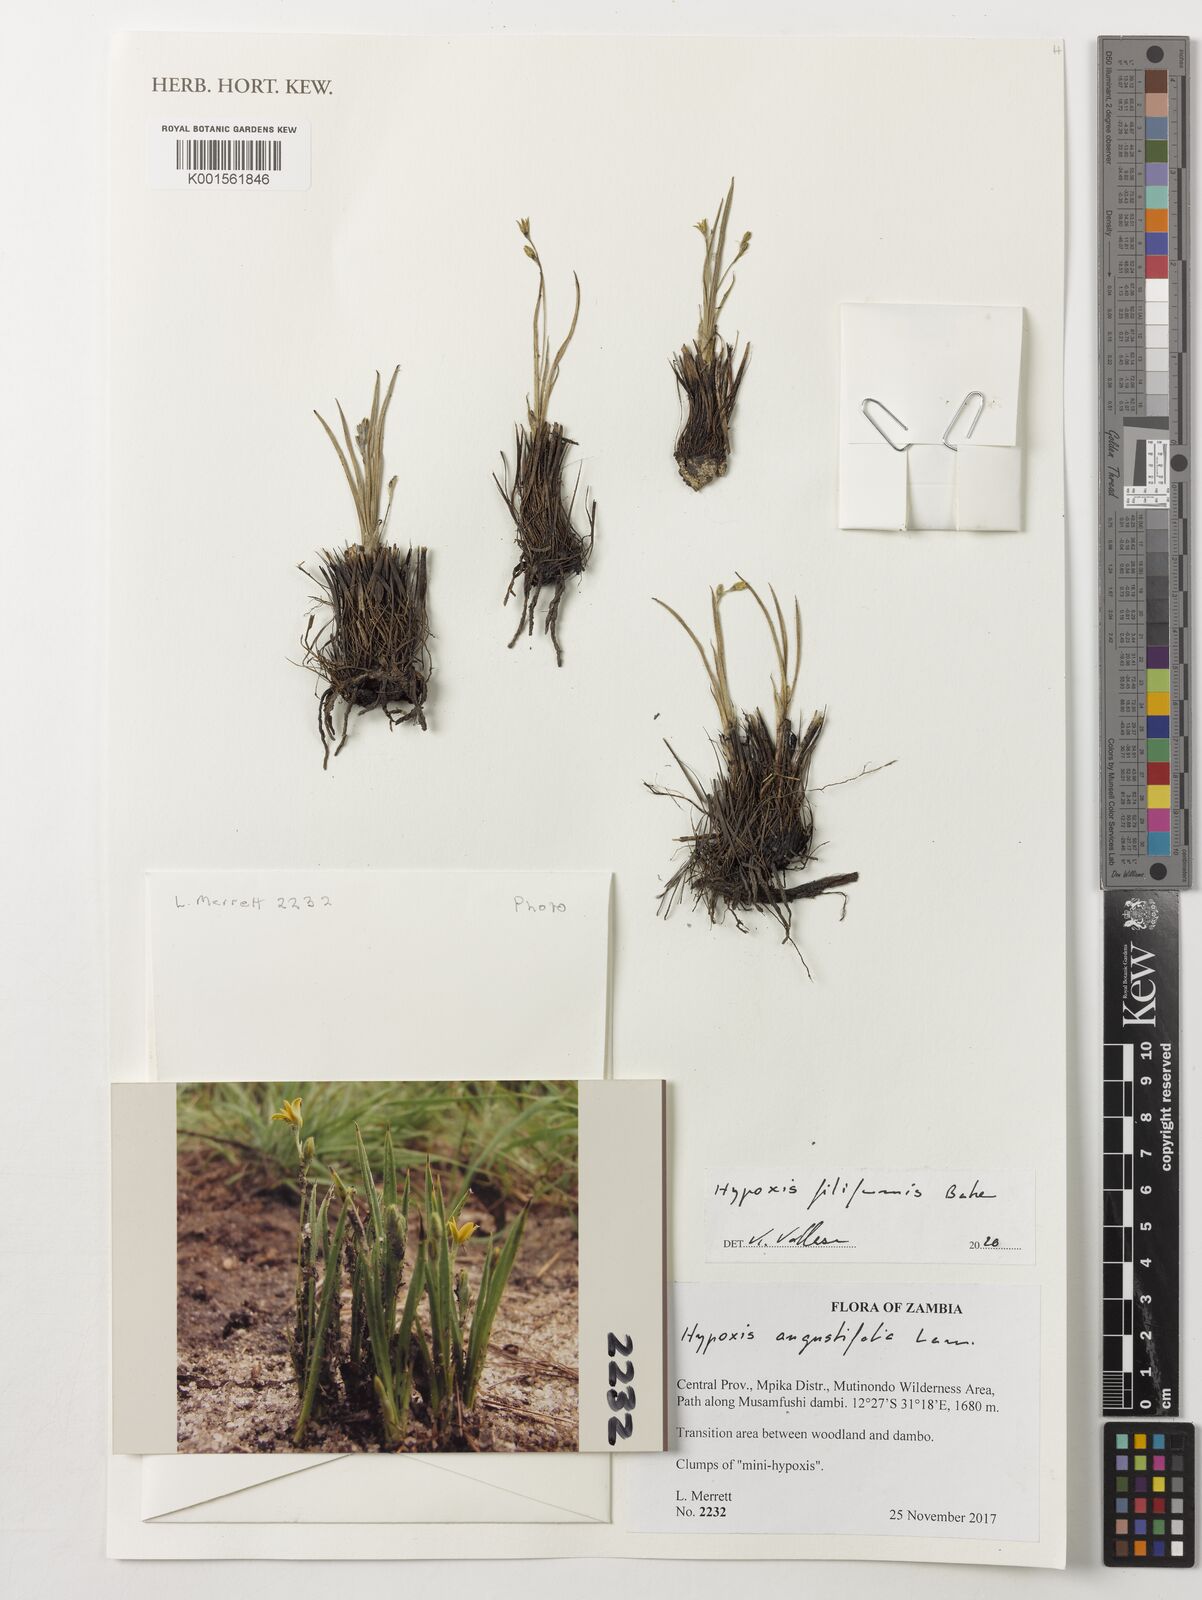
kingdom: Plantae
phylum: Tracheophyta
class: Liliopsida
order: Asparagales
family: Hypoxidaceae
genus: Hypoxis
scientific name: Hypoxis angustifolia
